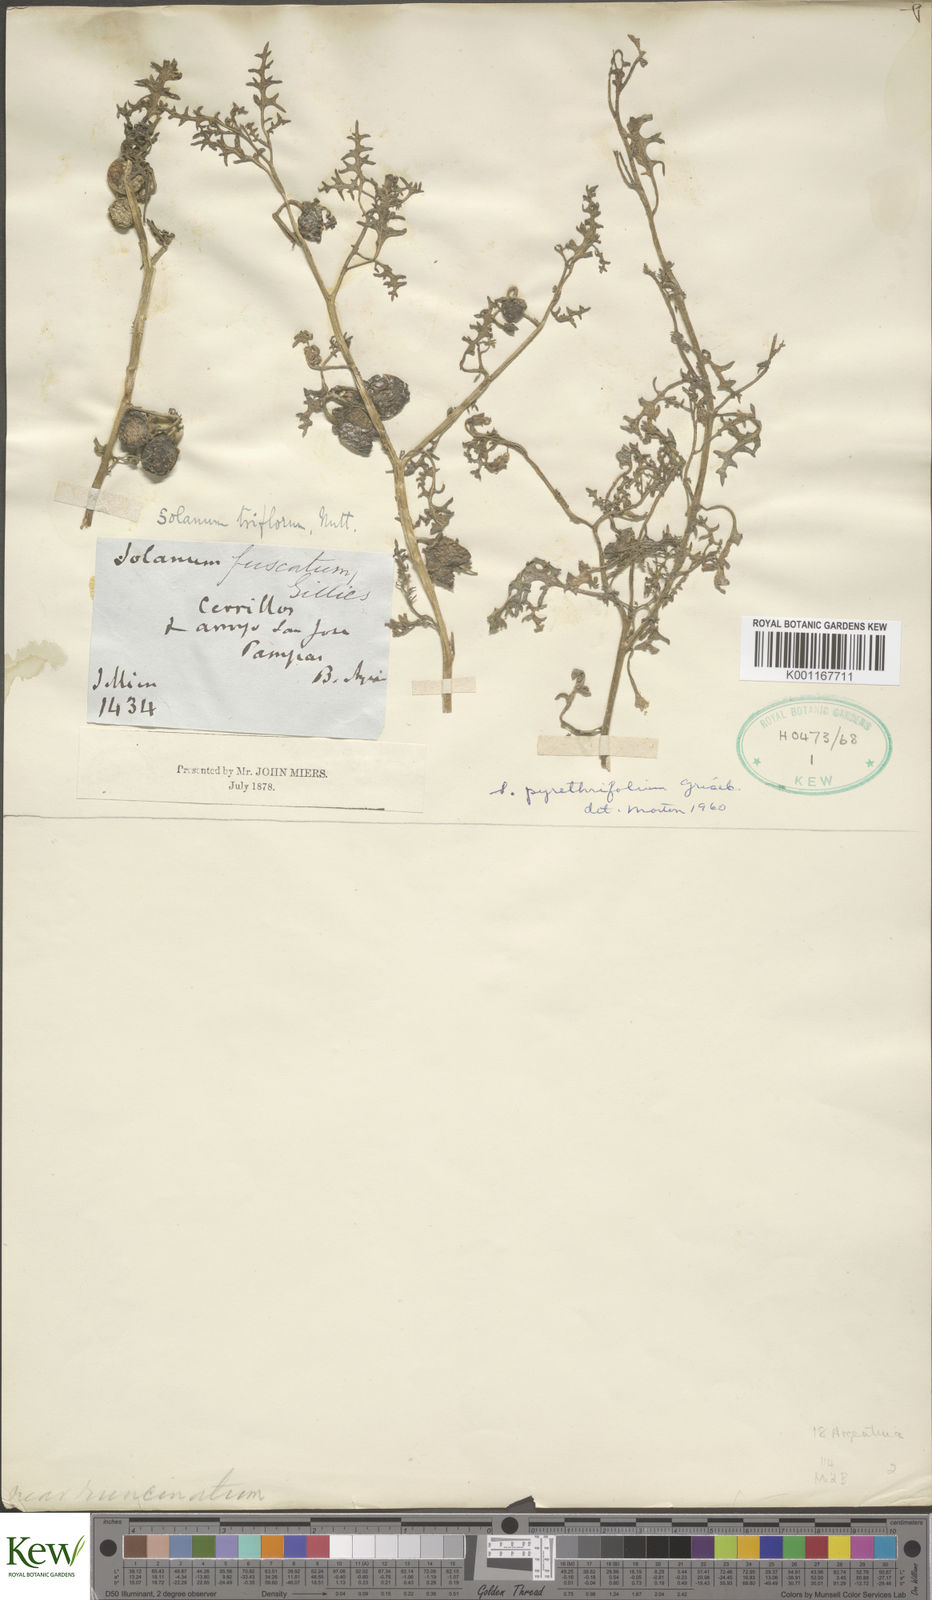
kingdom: Plantae
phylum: Tracheophyta
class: Magnoliopsida
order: Solanales
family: Solanaceae
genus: Solanum
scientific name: Solanum triflorum
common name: Small nightshade
